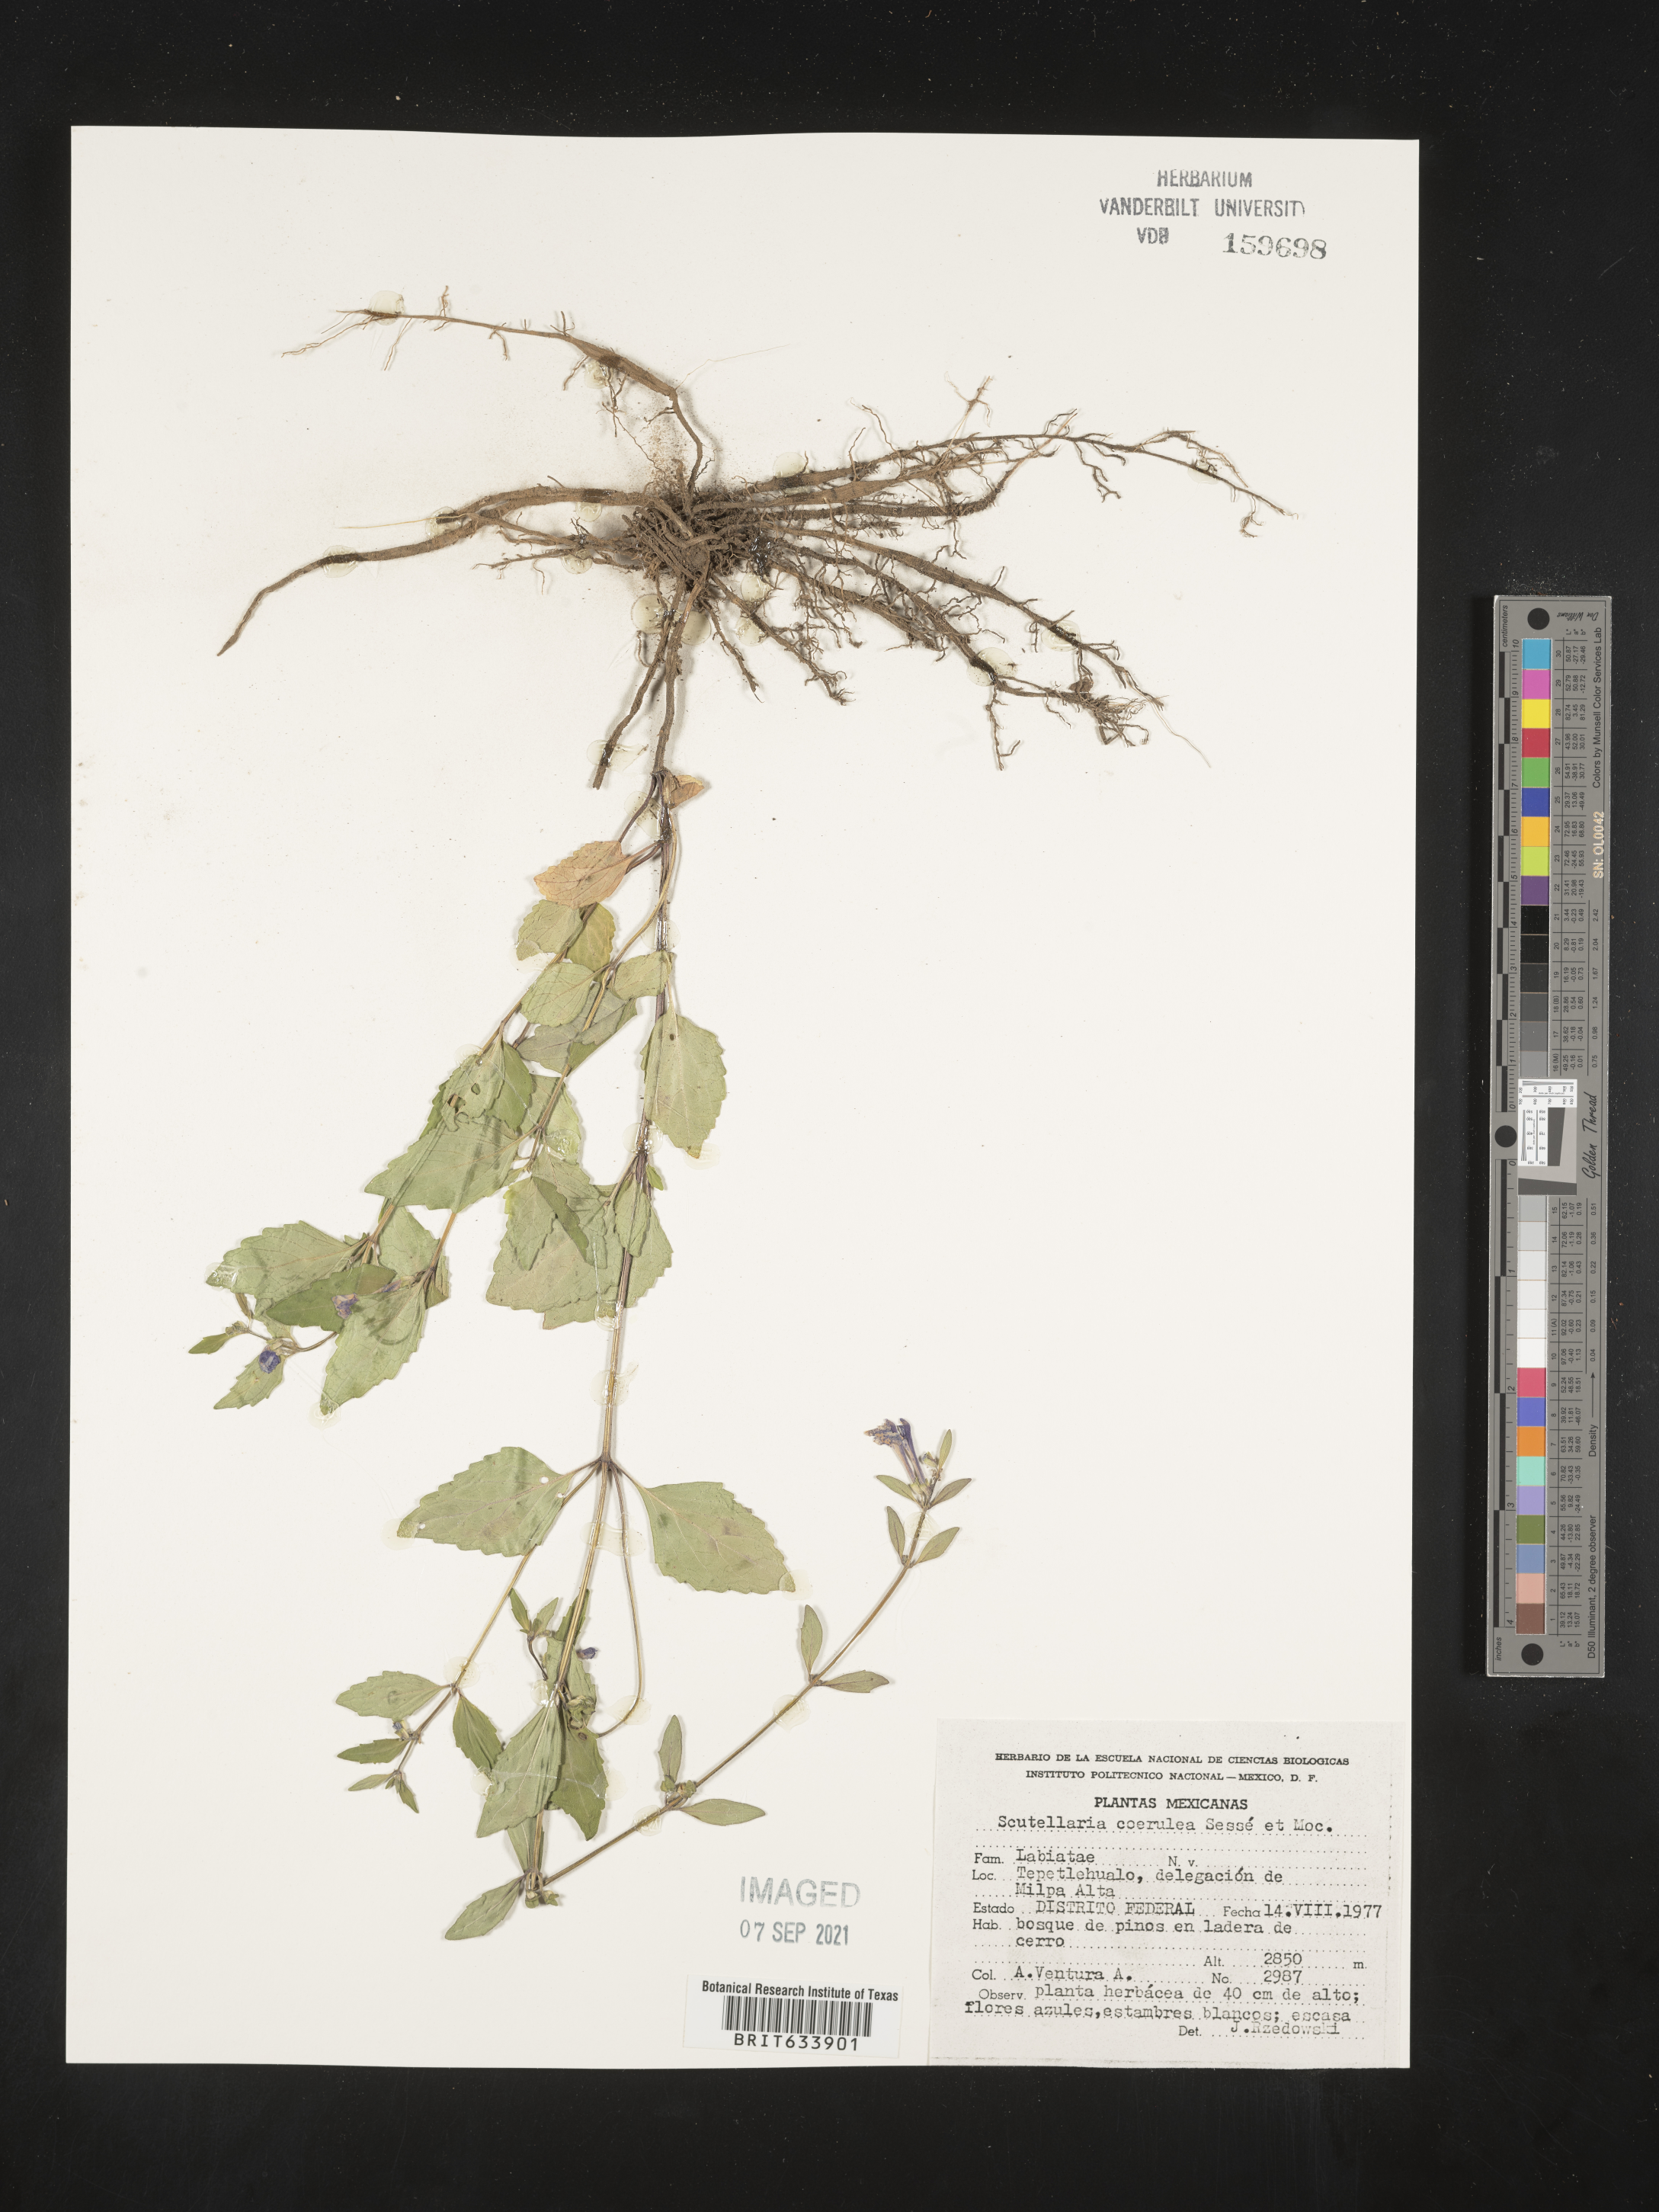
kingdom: Plantae
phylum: Tracheophyta
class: Magnoliopsida
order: Lamiales
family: Lamiaceae
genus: Scutellaria
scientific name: Scutellaria
